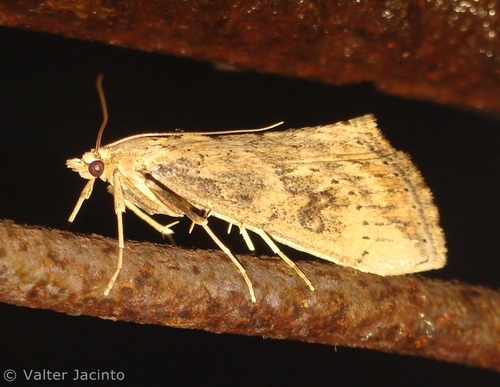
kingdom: Animalia
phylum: Arthropoda
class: Insecta
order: Lepidoptera
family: Crambidae
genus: Evergestis
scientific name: Evergestis isatidalis
